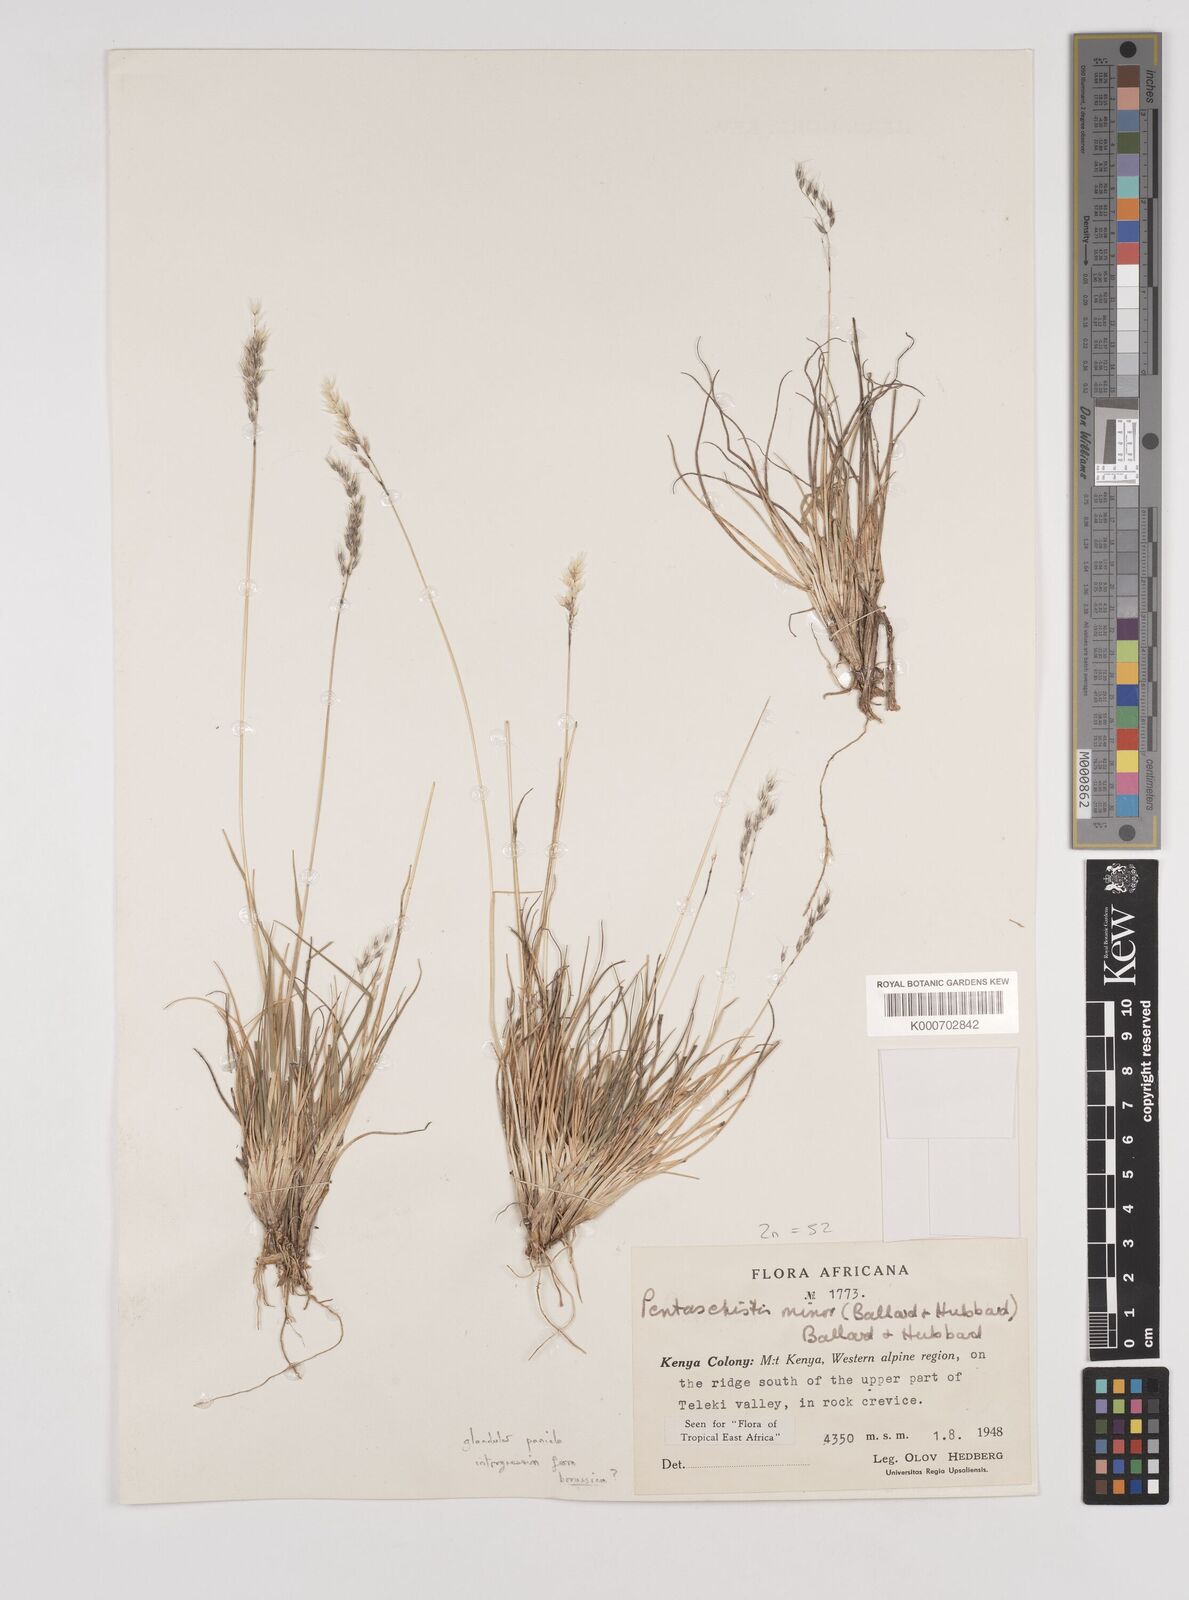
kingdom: Plantae
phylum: Tracheophyta
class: Liliopsida
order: Poales
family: Poaceae
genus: Pentameris
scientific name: Pentameris minor
